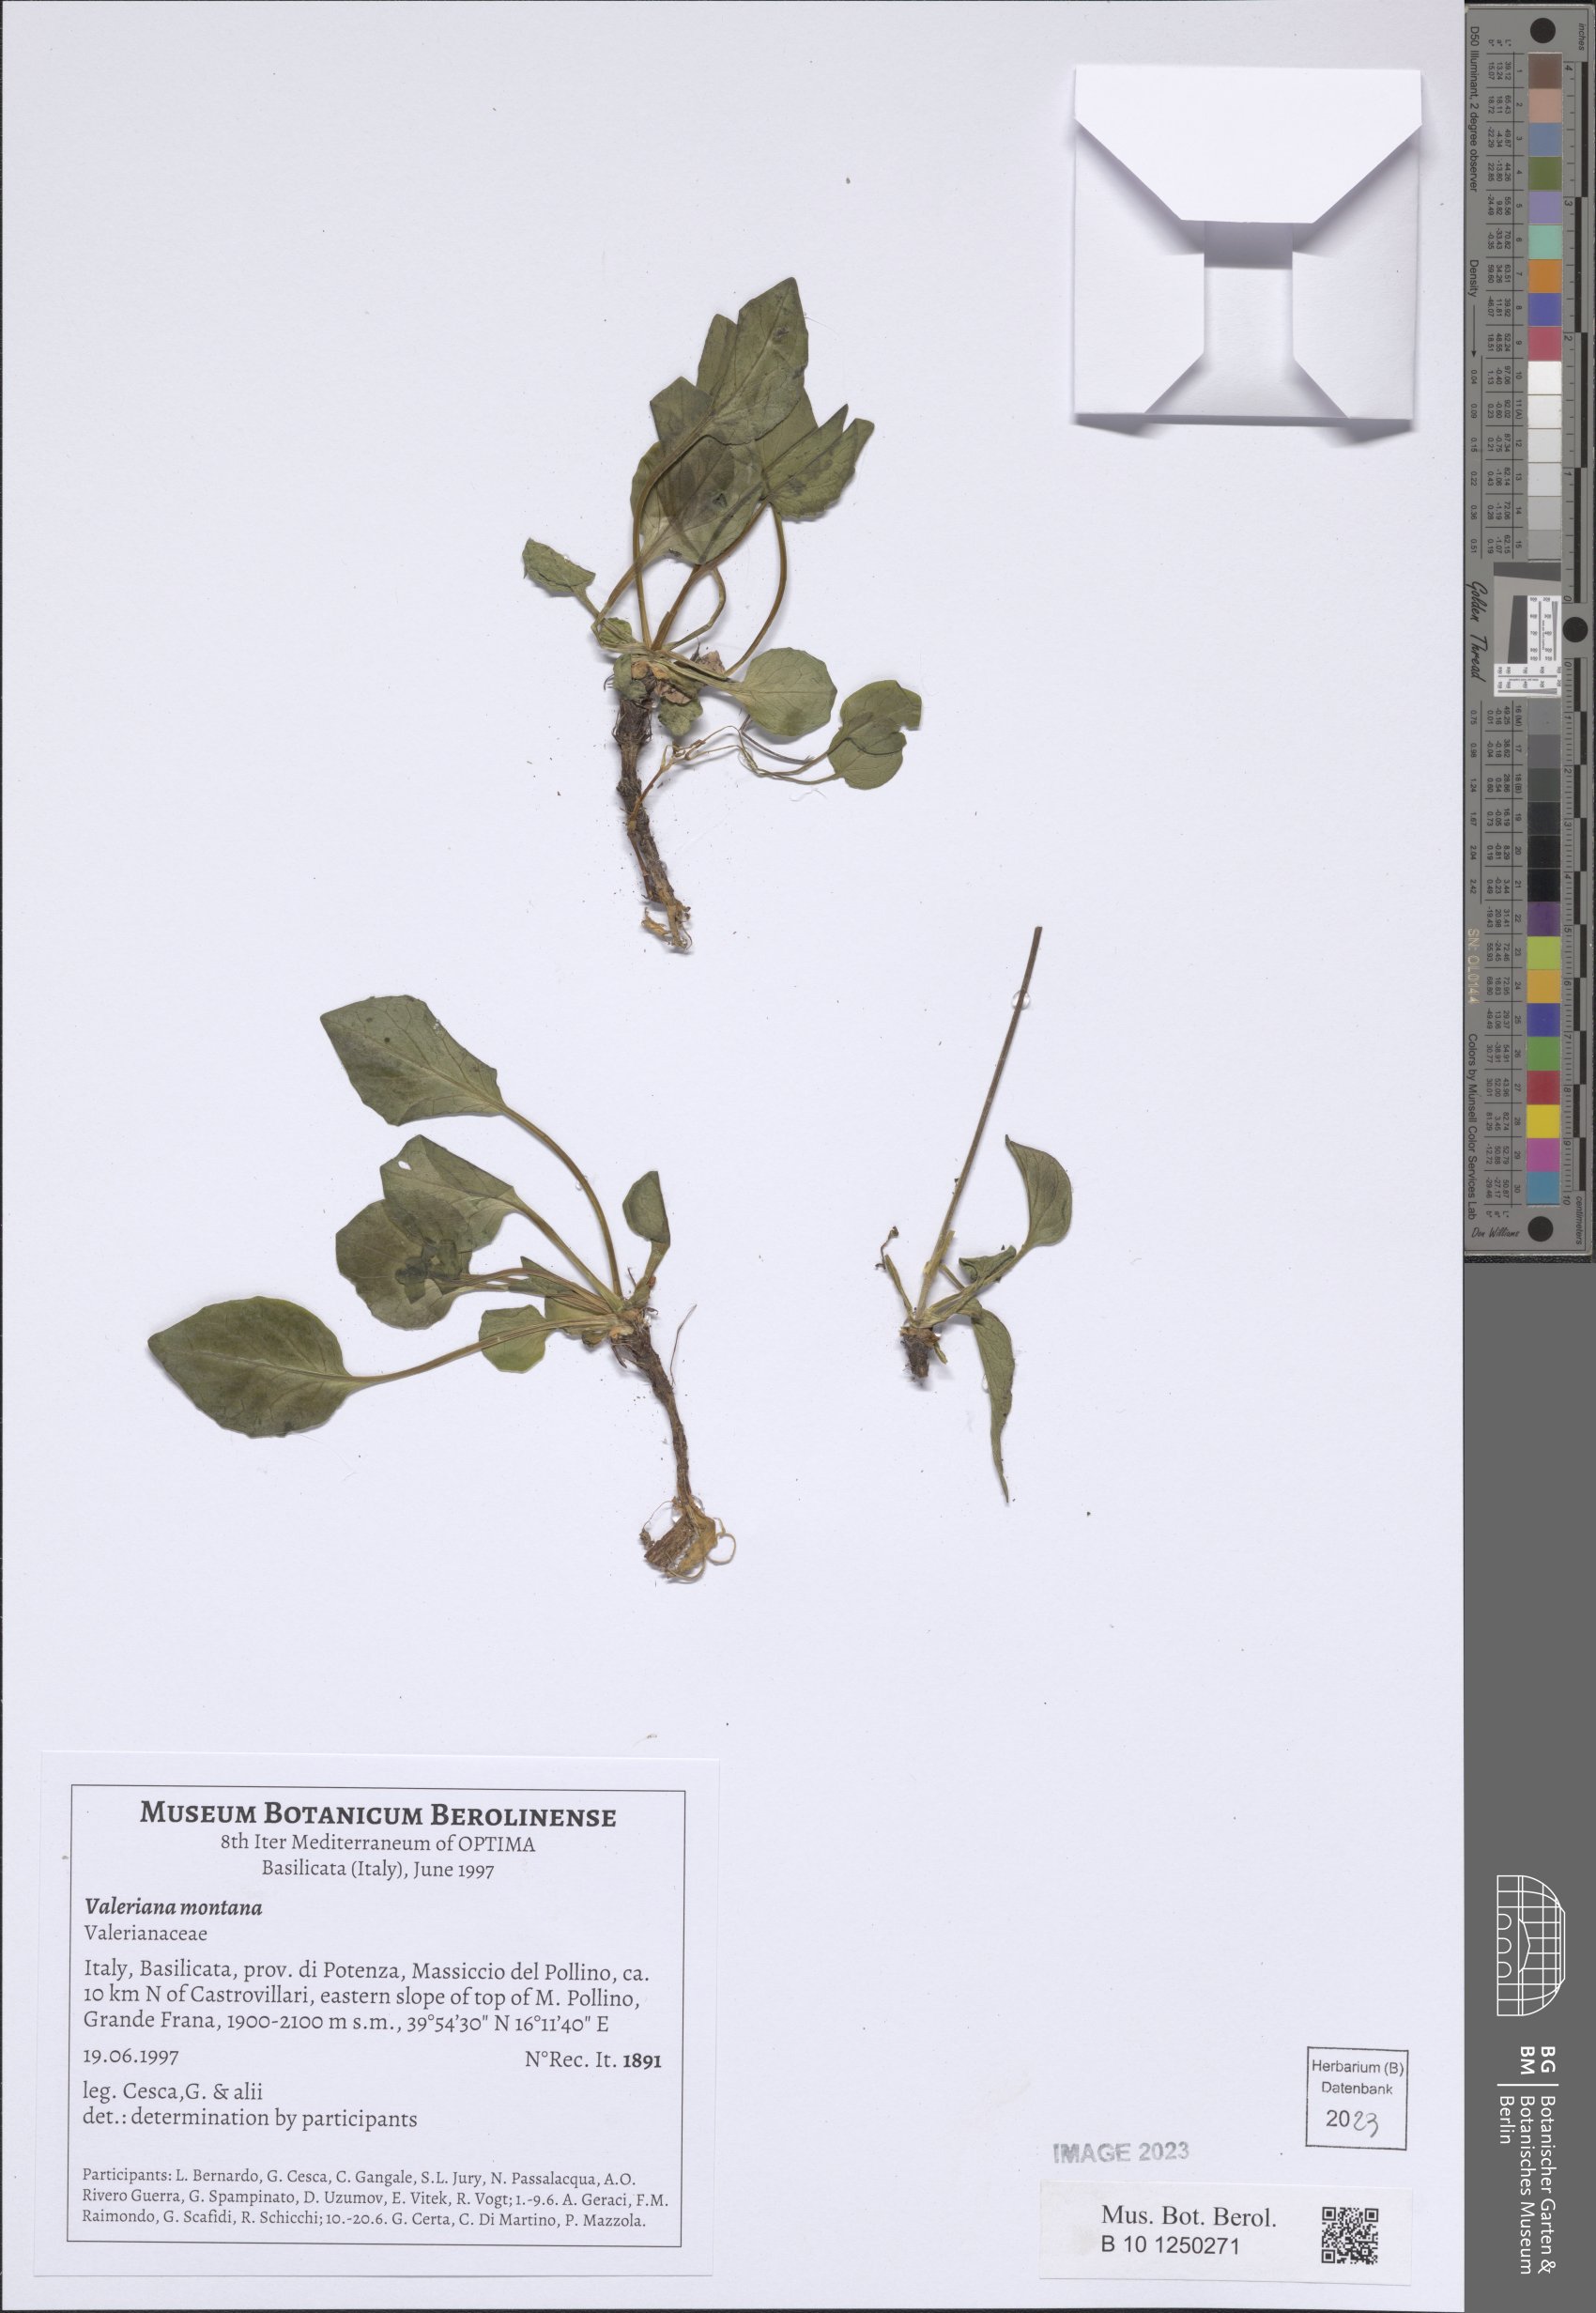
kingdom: Plantae
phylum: Tracheophyta
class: Magnoliopsida
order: Dipsacales
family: Caprifoliaceae
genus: Valeriana
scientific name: Valeriana montana
